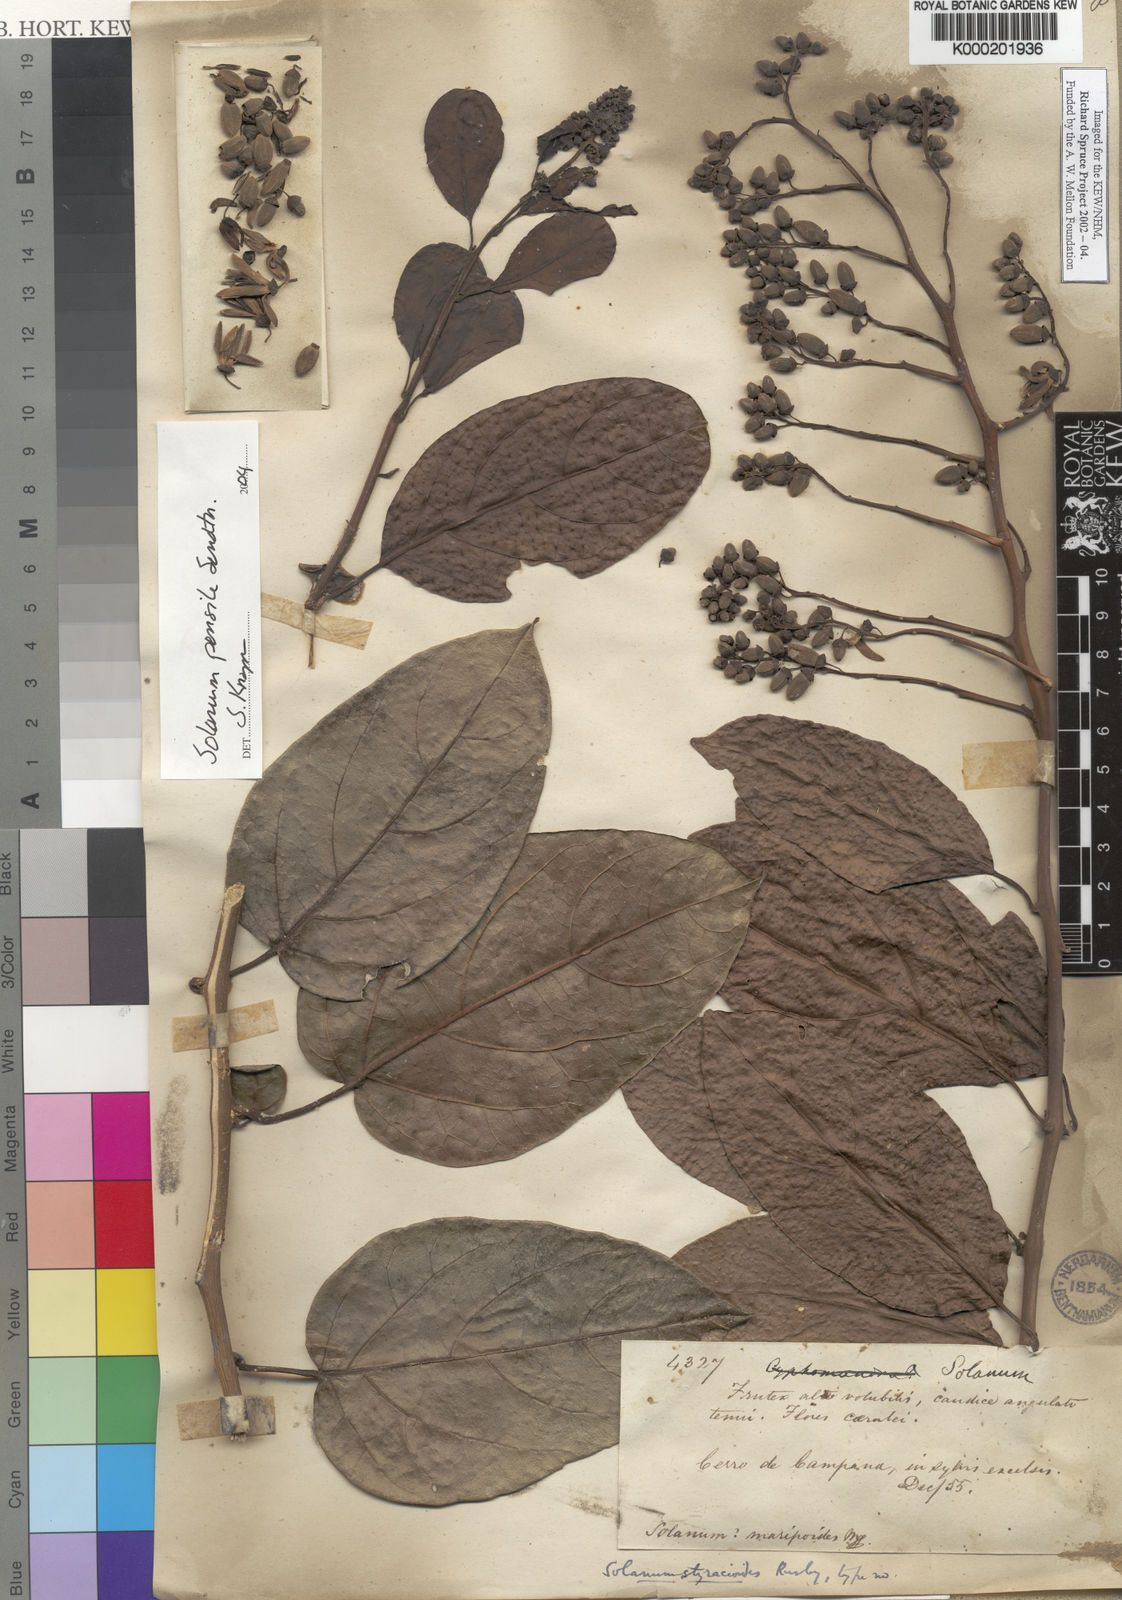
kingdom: Plantae
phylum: Tracheophyta
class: Magnoliopsida
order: Solanales
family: Solanaceae
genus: Solanum
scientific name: Solanum uncinellum
